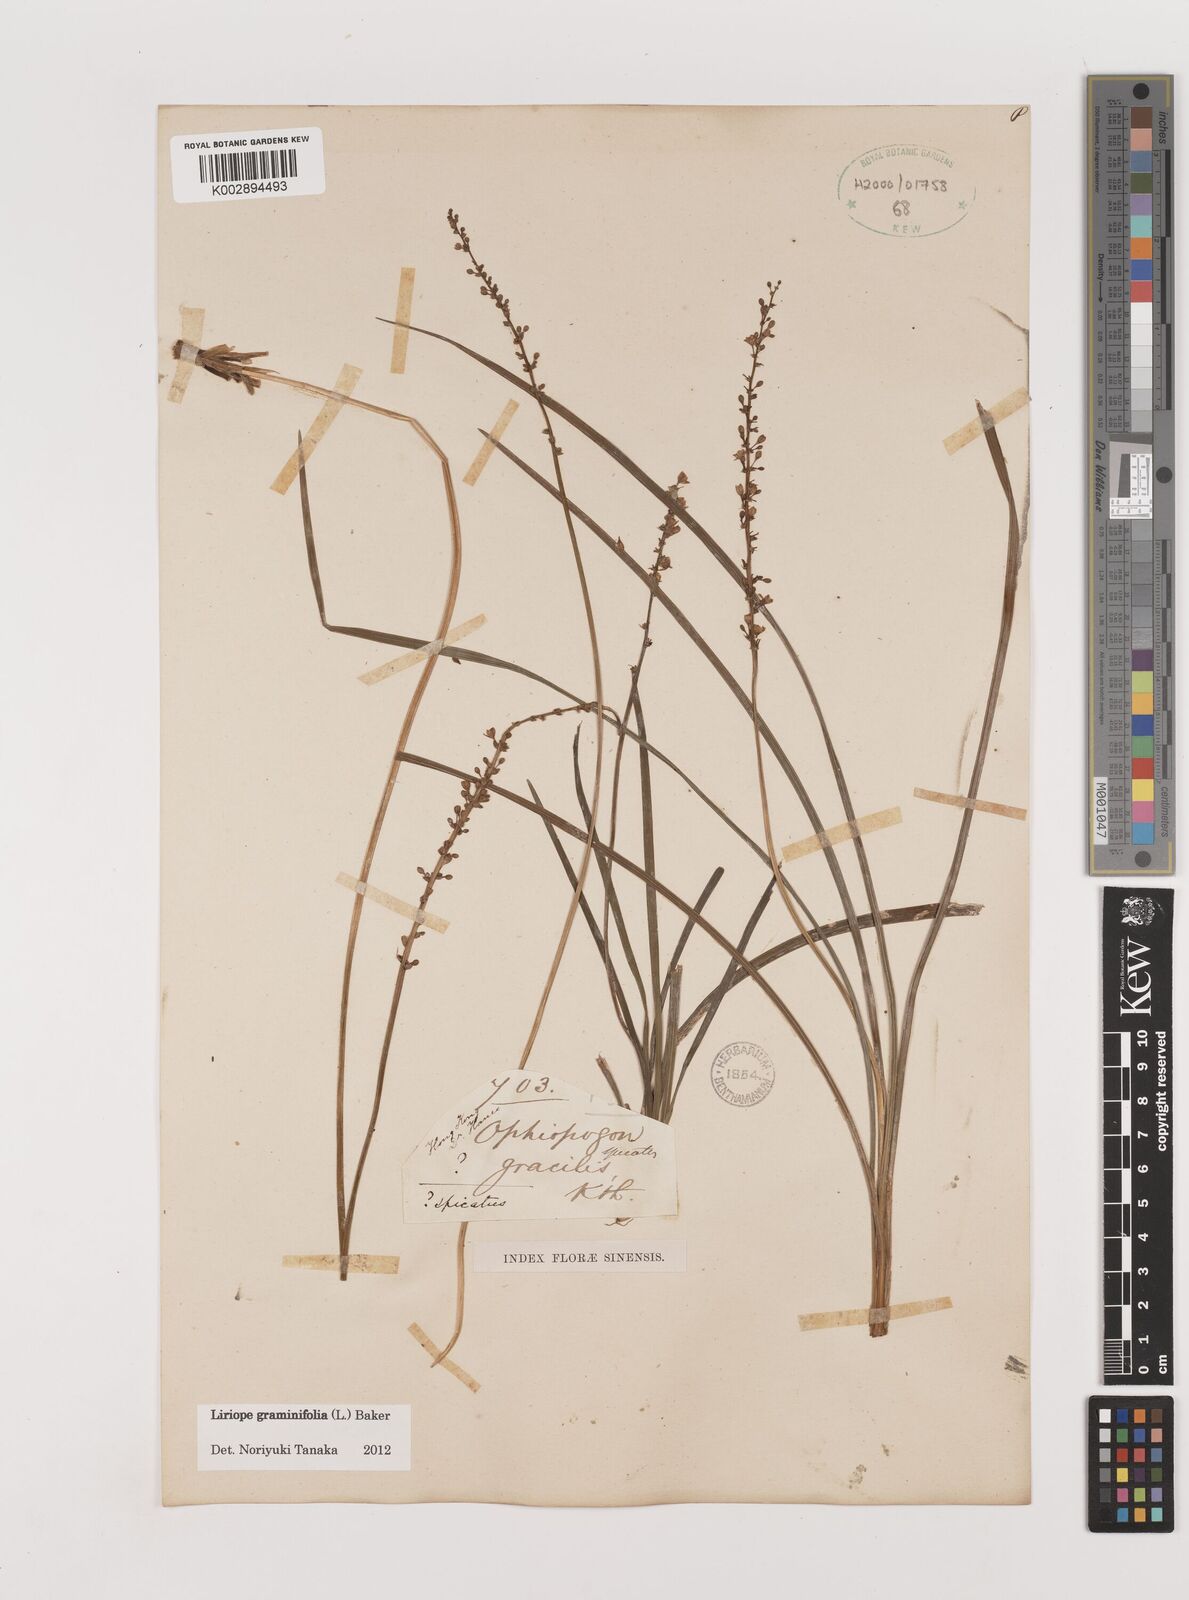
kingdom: Plantae
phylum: Tracheophyta
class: Liliopsida
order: Asparagales
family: Asparagaceae
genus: Liriope
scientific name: Liriope graminifolia
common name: Lilyturf
